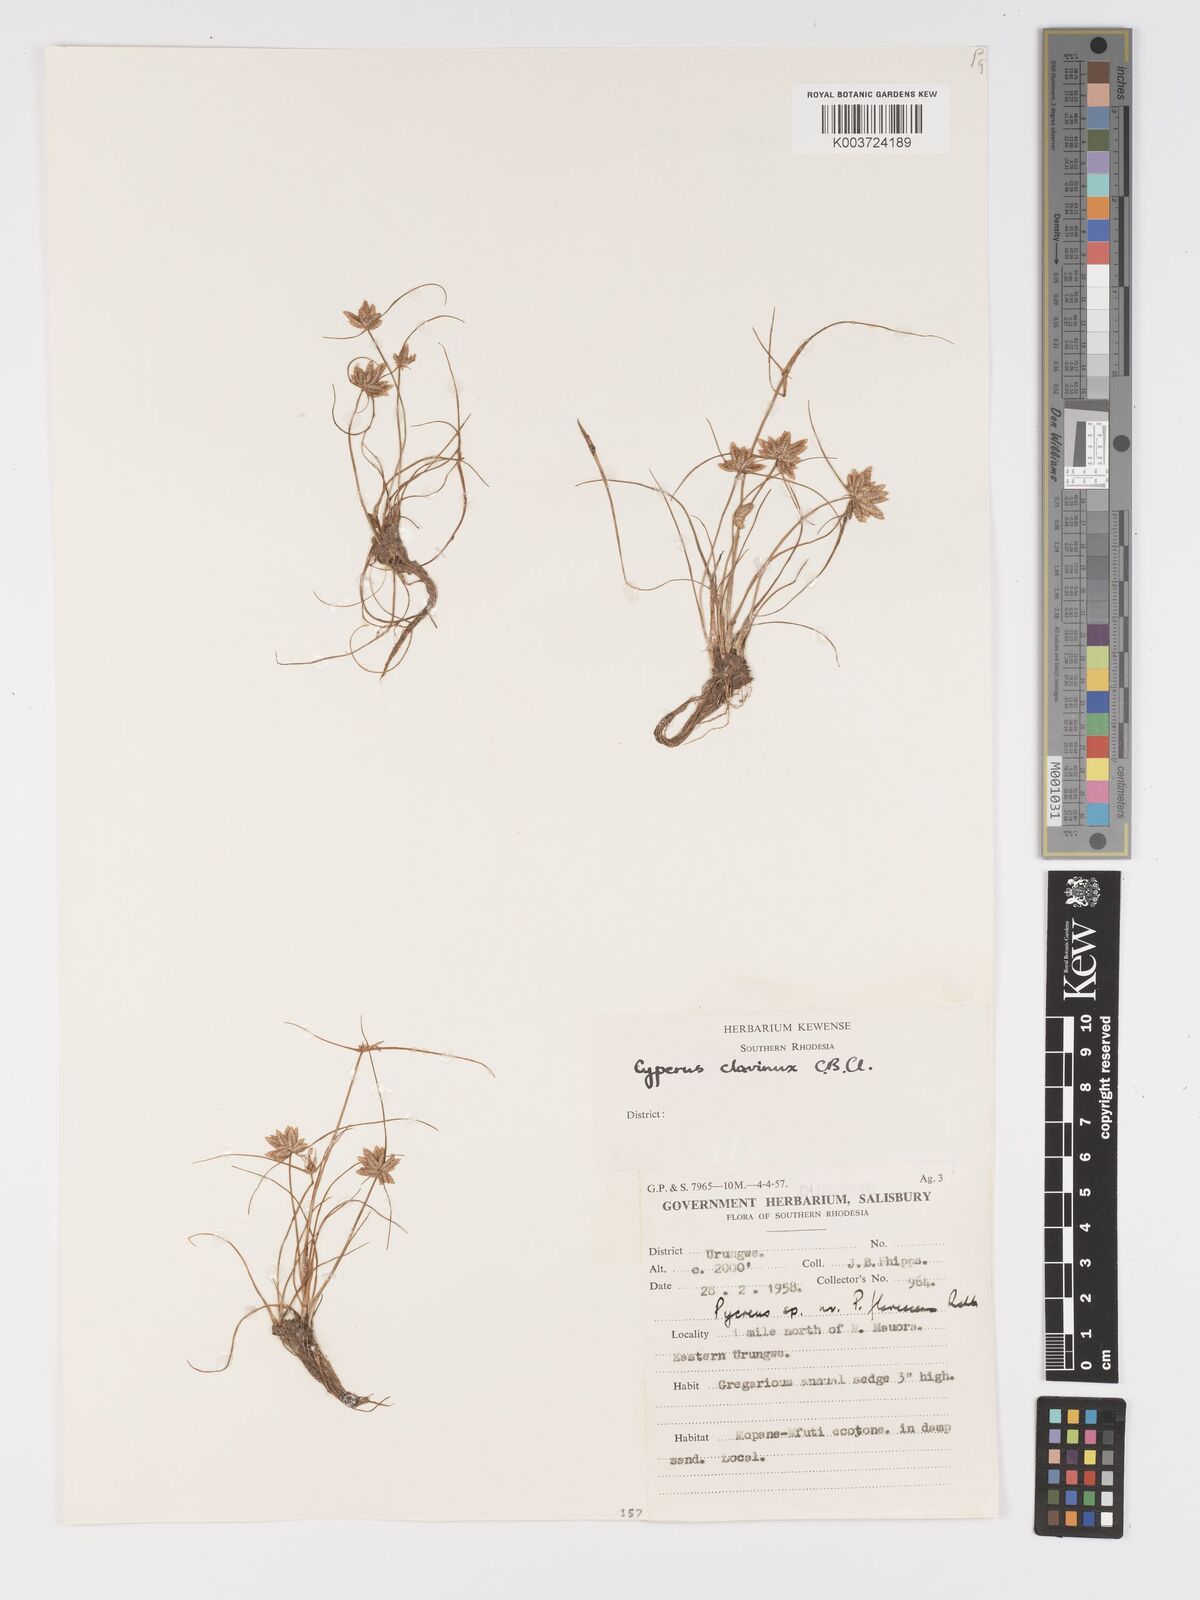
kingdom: Plantae
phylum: Tracheophyta
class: Liliopsida
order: Poales
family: Cyperaceae
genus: Cyperus
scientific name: Cyperus clavinux
